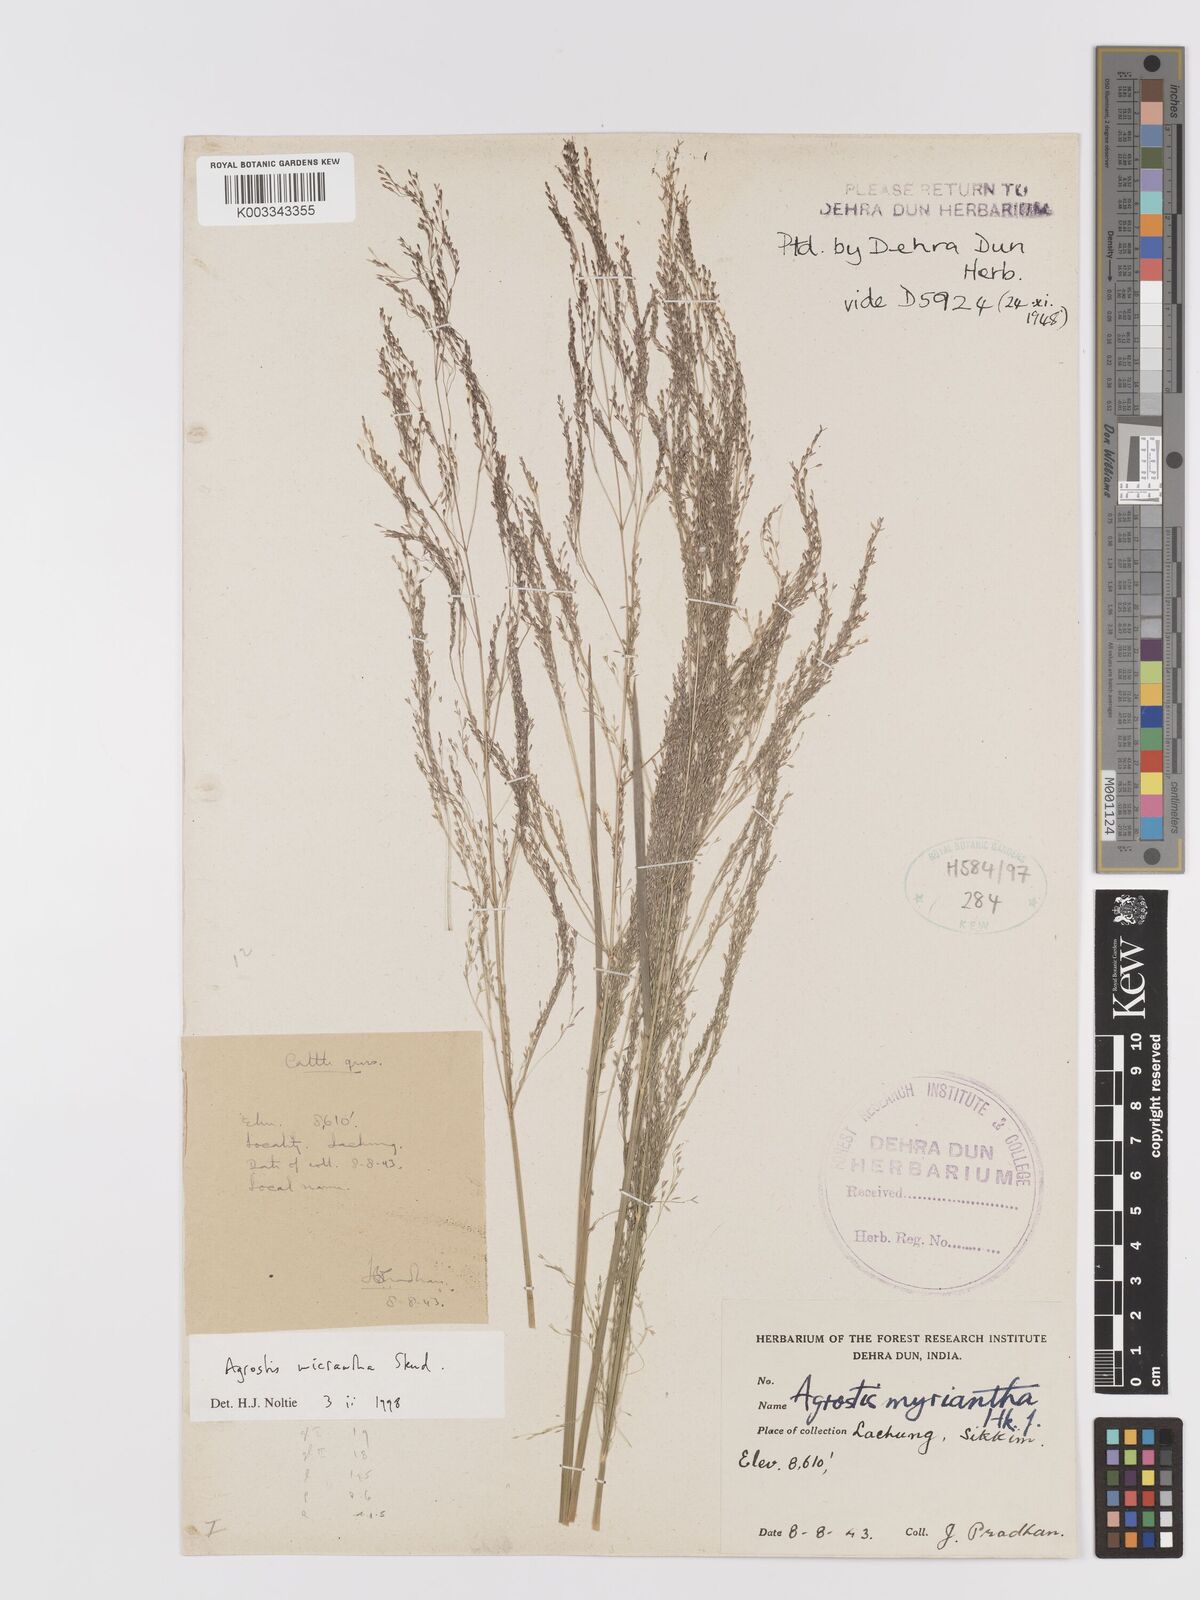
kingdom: Plantae
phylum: Tracheophyta
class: Liliopsida
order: Poales
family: Poaceae
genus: Agrostis
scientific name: Agrostis micrantha
